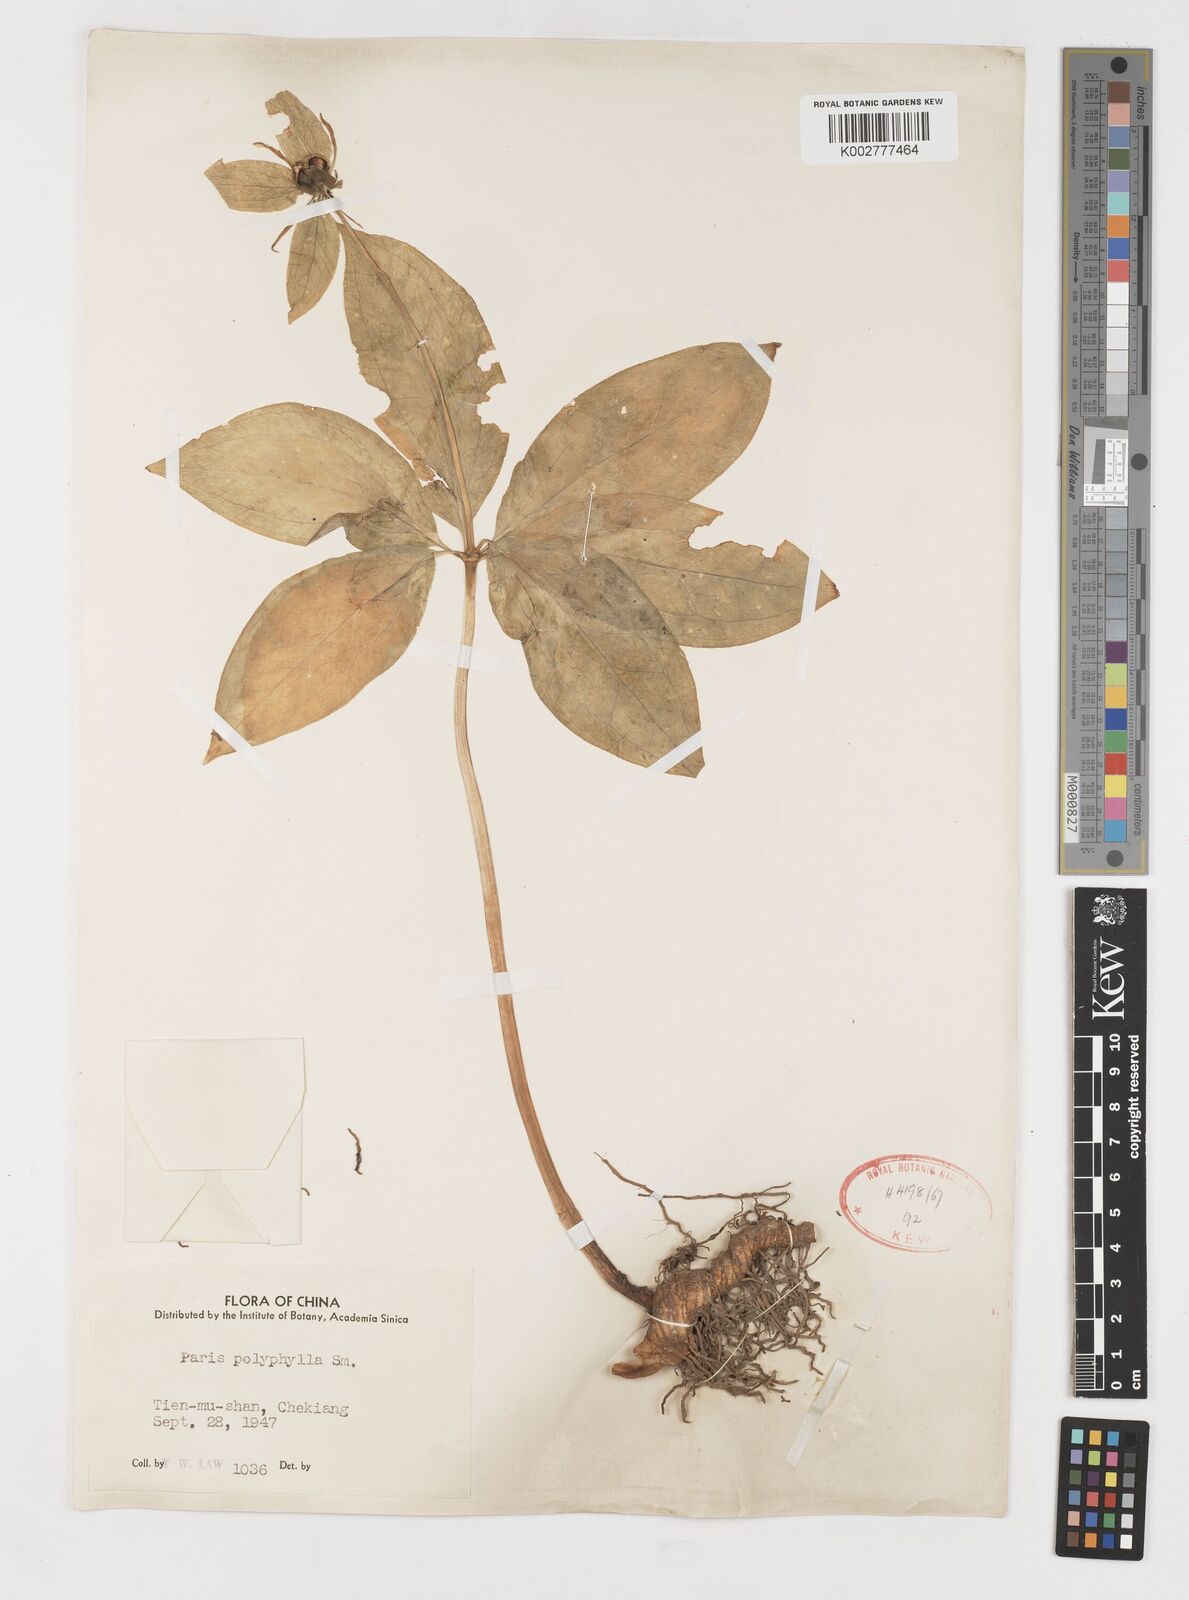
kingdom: Plantae
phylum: Tracheophyta
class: Liliopsida
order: Liliales
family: Melanthiaceae
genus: Paris
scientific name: Paris polyphylla
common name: Love apple
